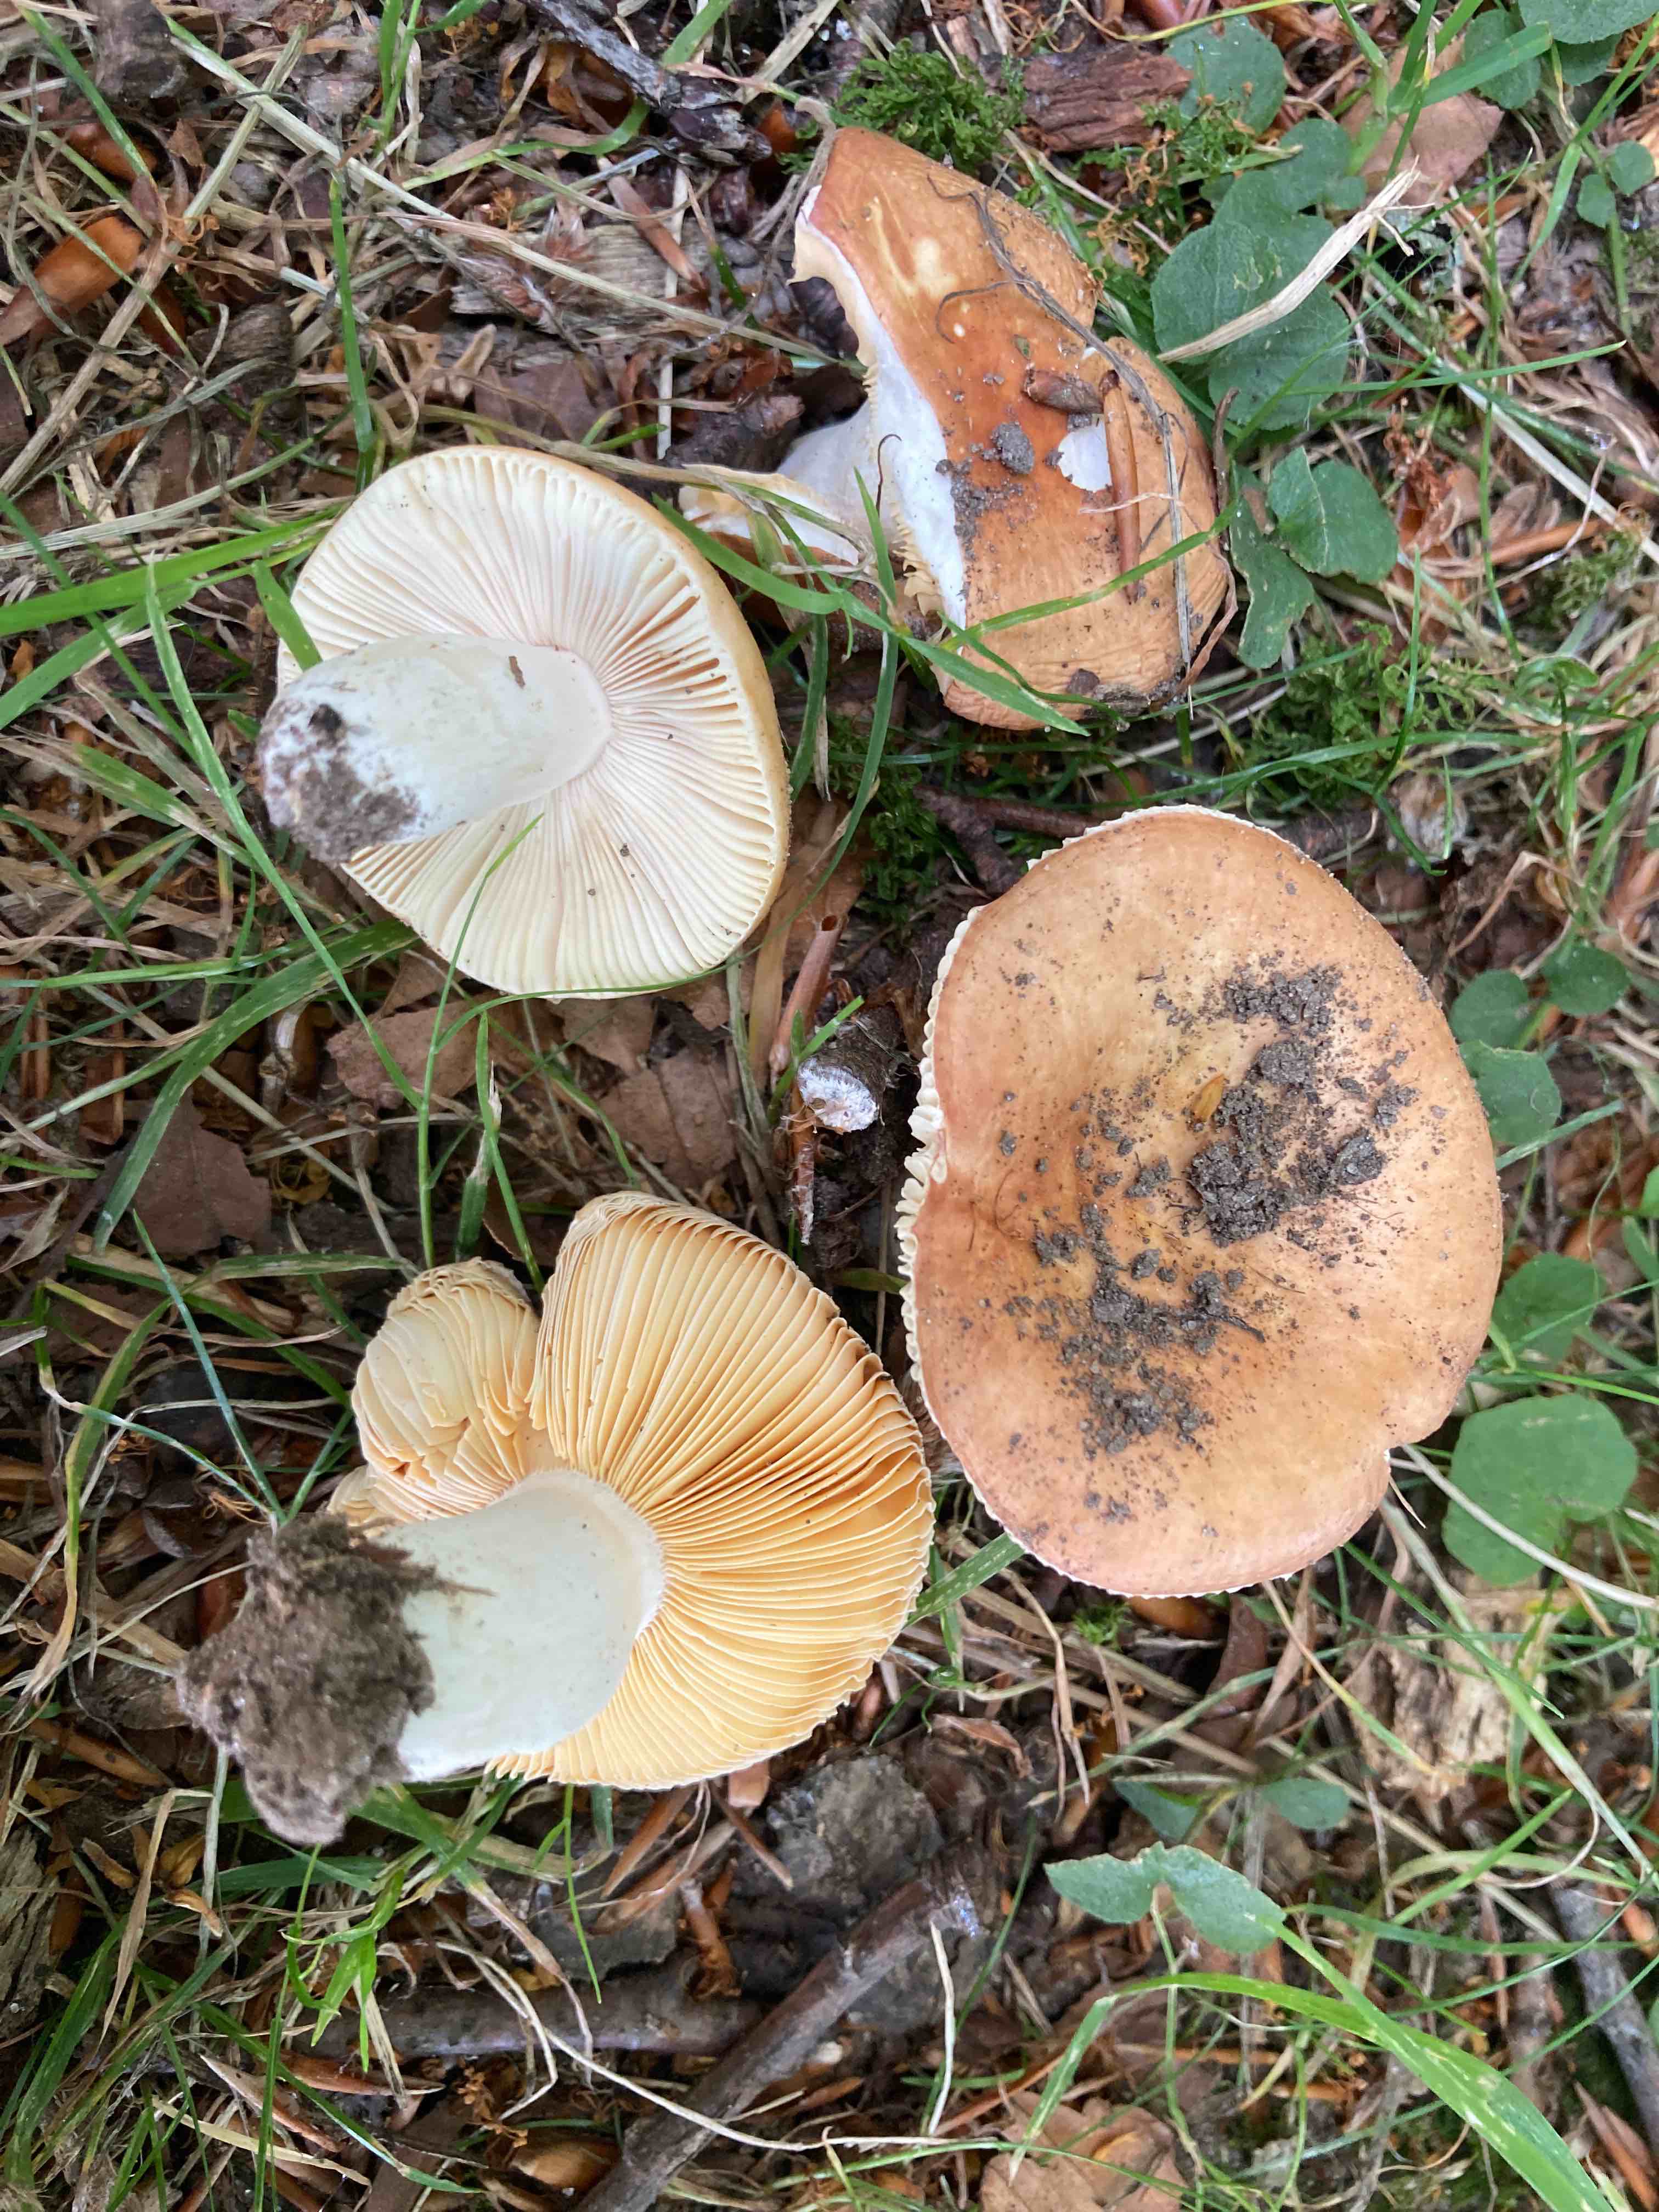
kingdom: Fungi
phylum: Basidiomycota
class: Agaricomycetes
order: Russulales
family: Russulaceae
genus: Russula
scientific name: Russula laeta
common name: orangerosa skørhat
